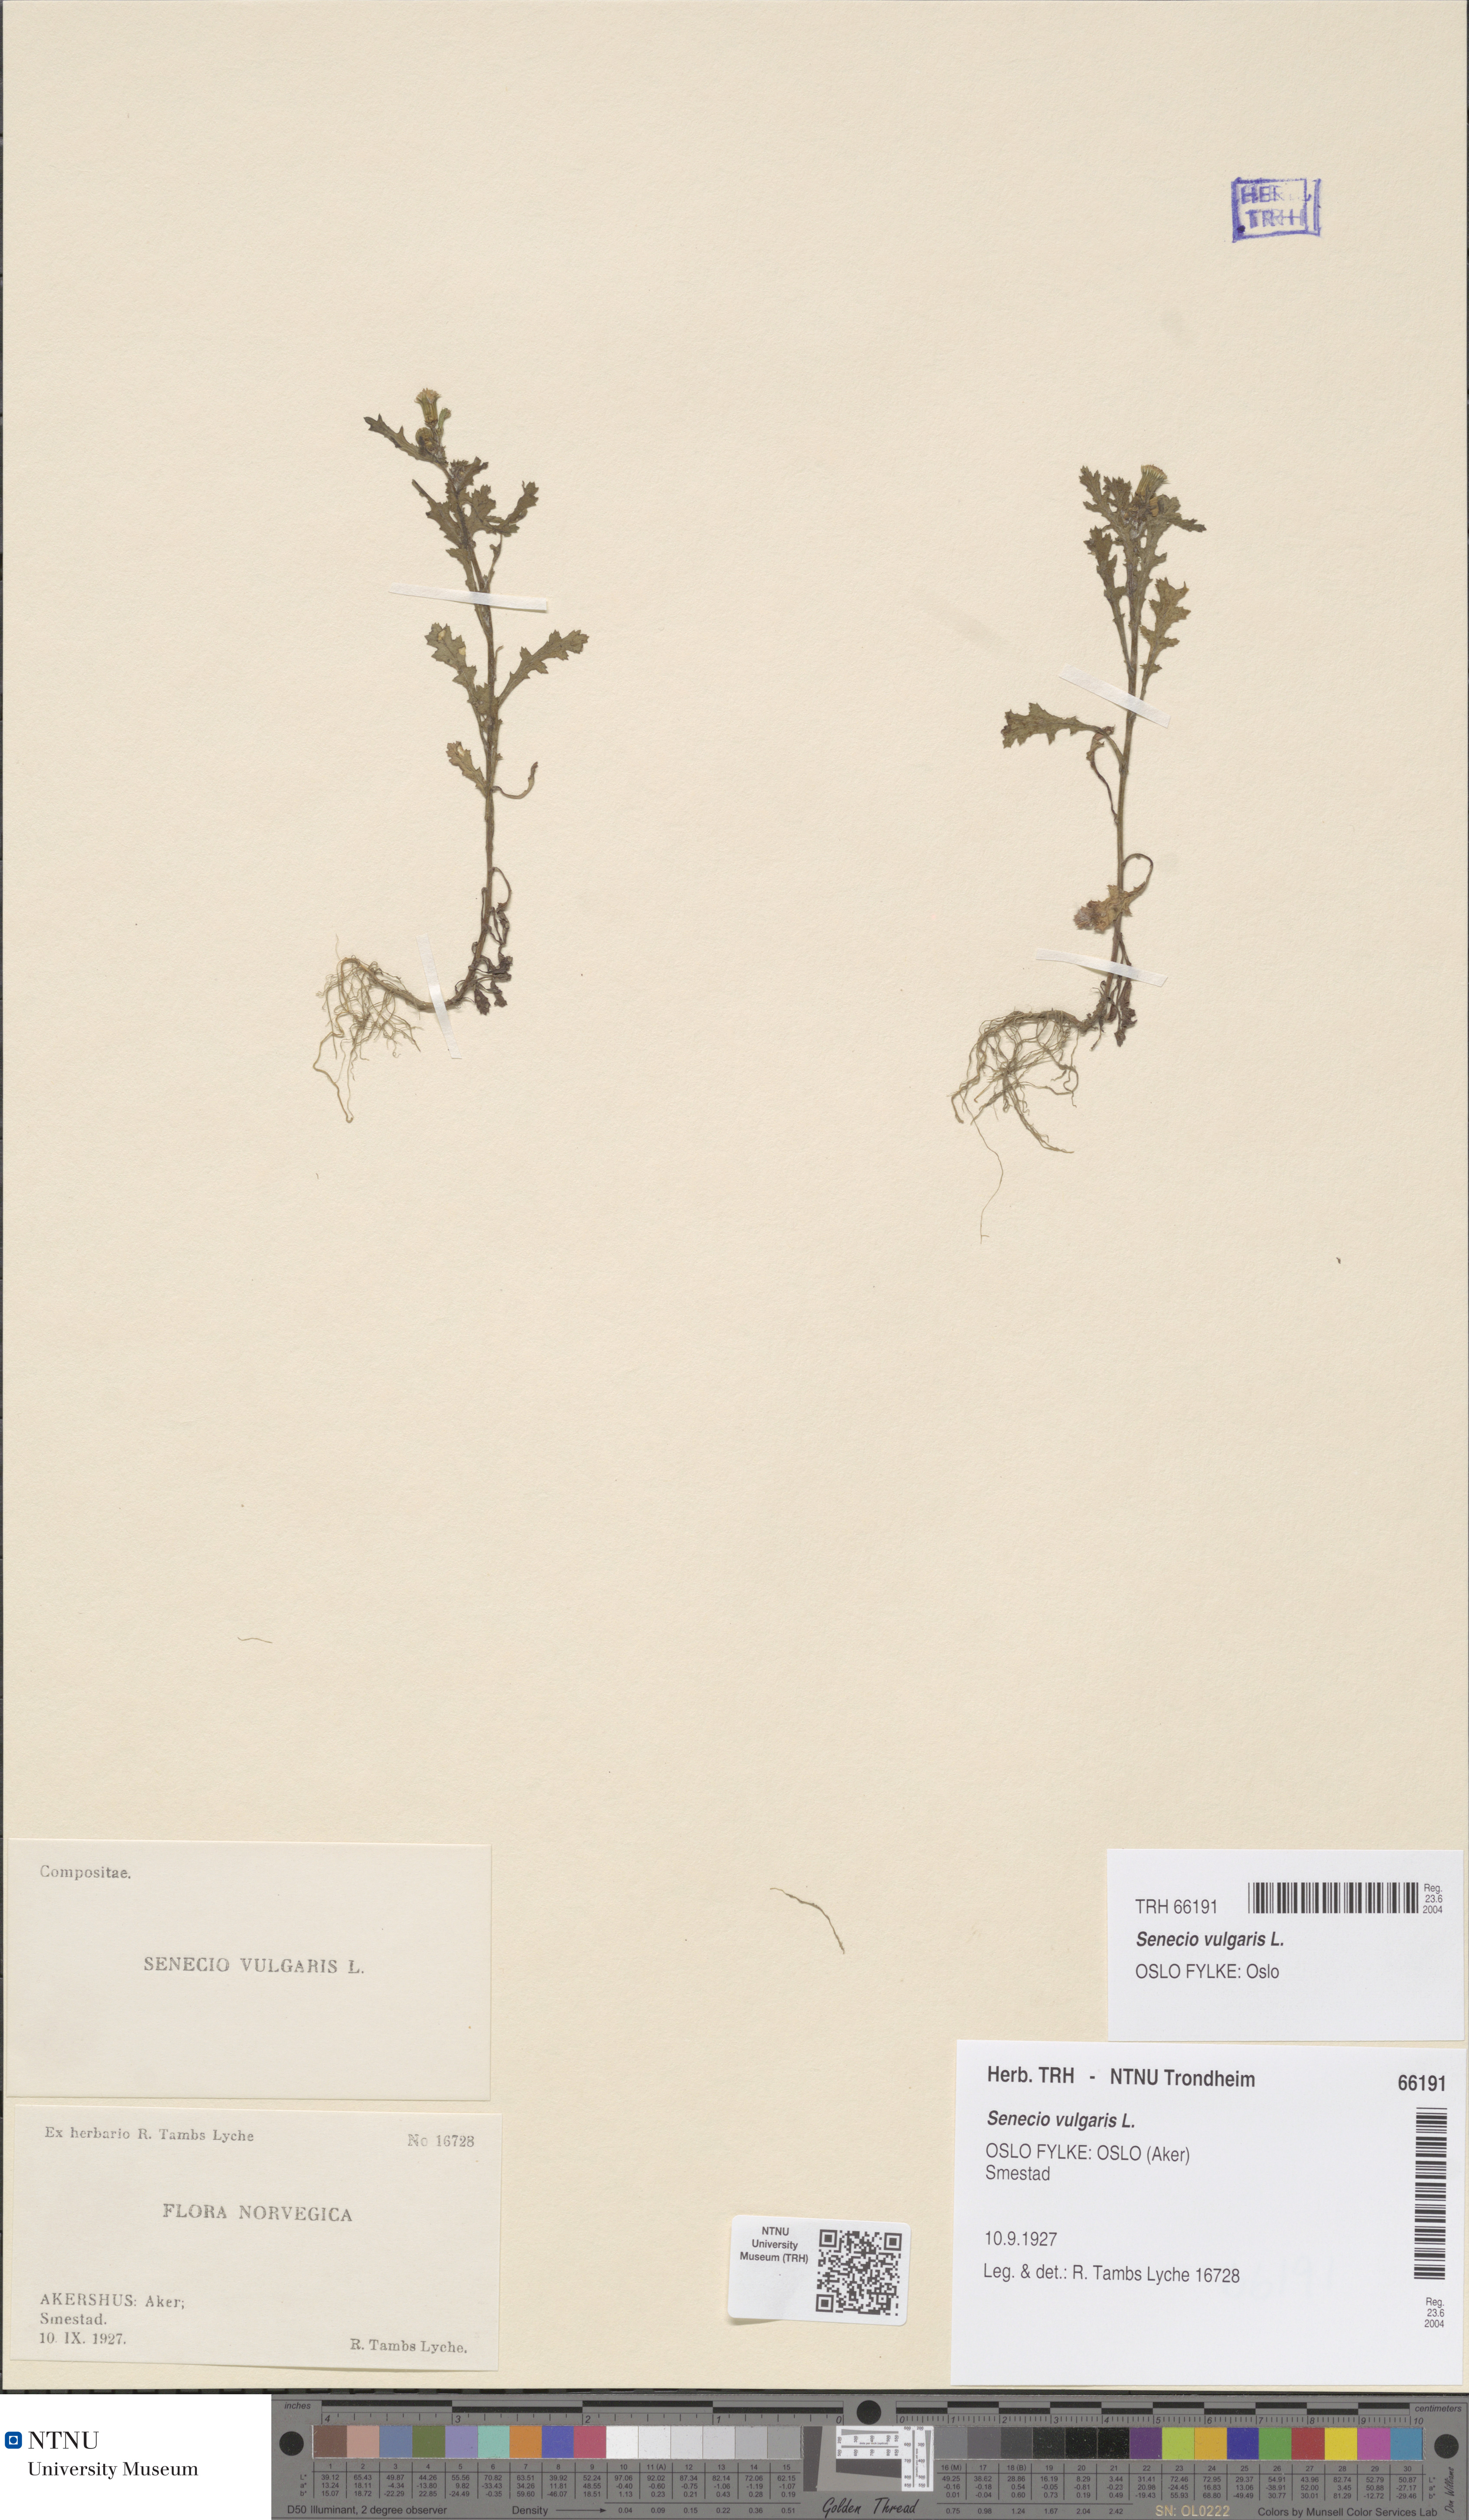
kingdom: Plantae
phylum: Tracheophyta
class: Magnoliopsida
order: Asterales
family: Asteraceae
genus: Senecio
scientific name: Senecio vulgaris
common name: Old-man-in-the-spring
